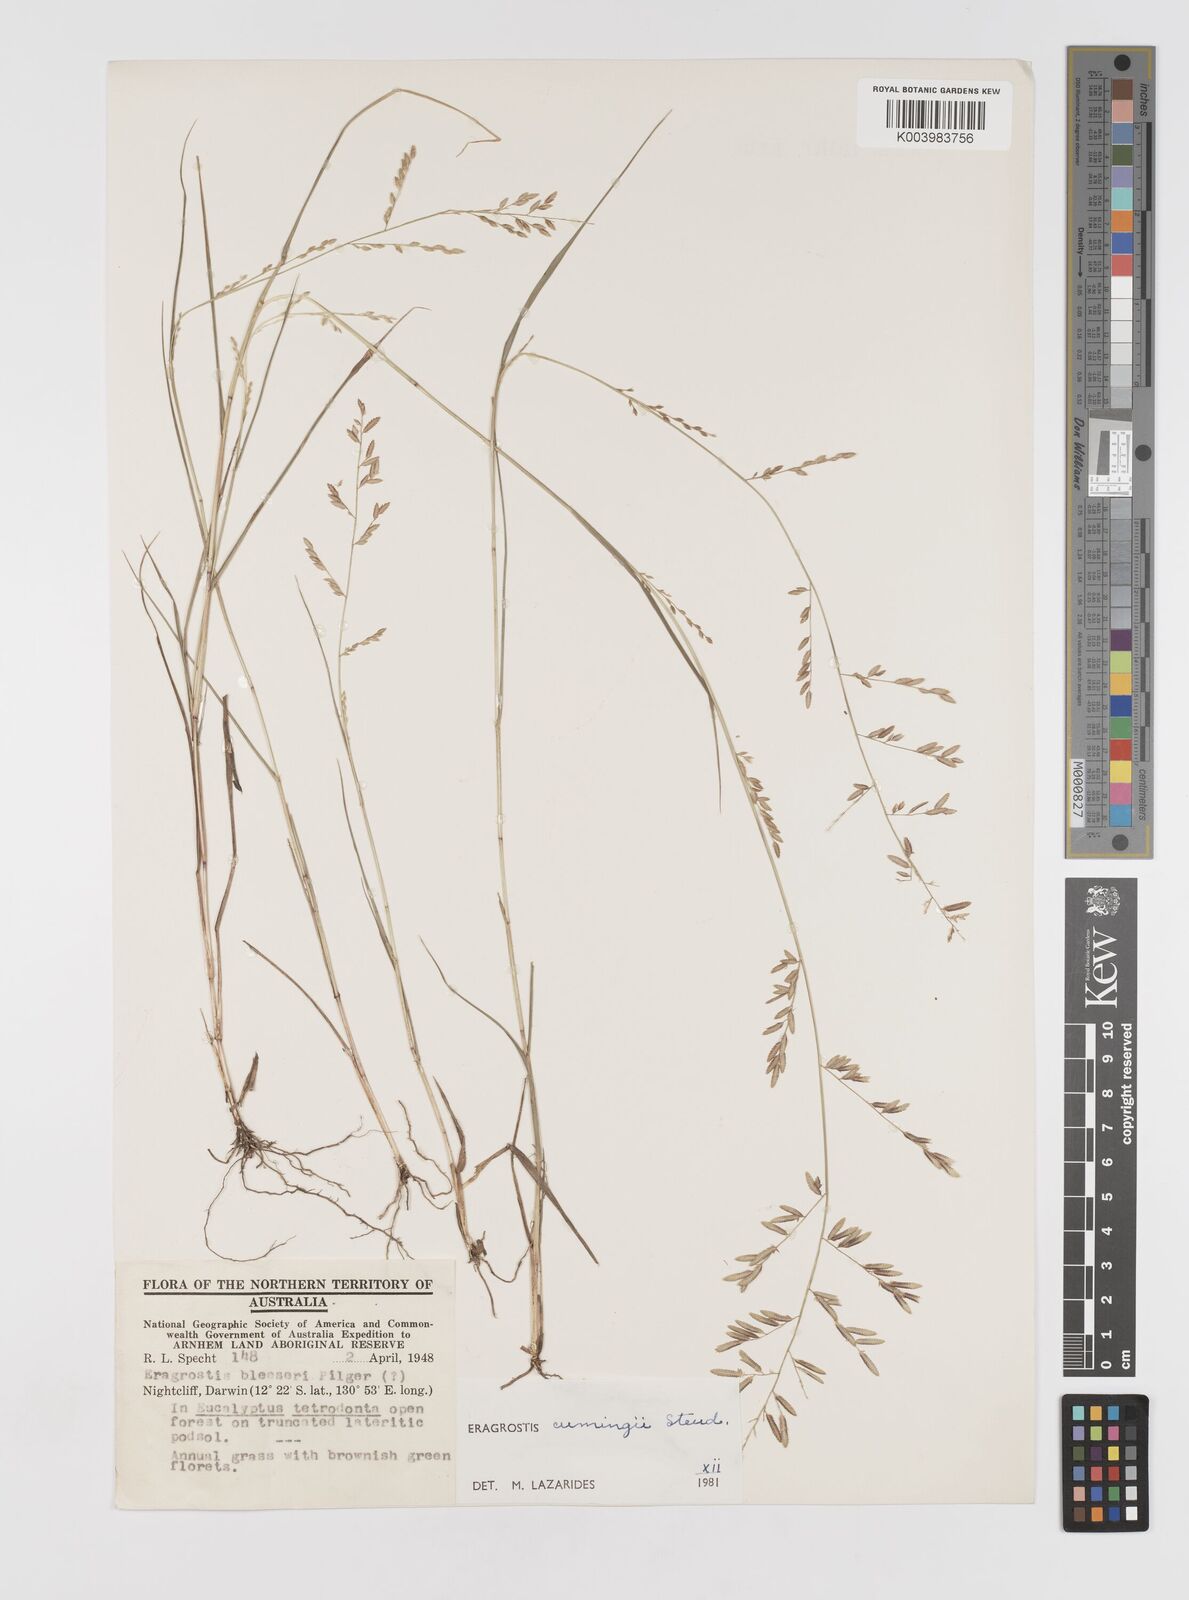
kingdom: Plantae
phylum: Tracheophyta
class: Liliopsida
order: Poales
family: Poaceae
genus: Eragrostis
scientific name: Eragrostis cumingii
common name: Cuming's lovegrass
